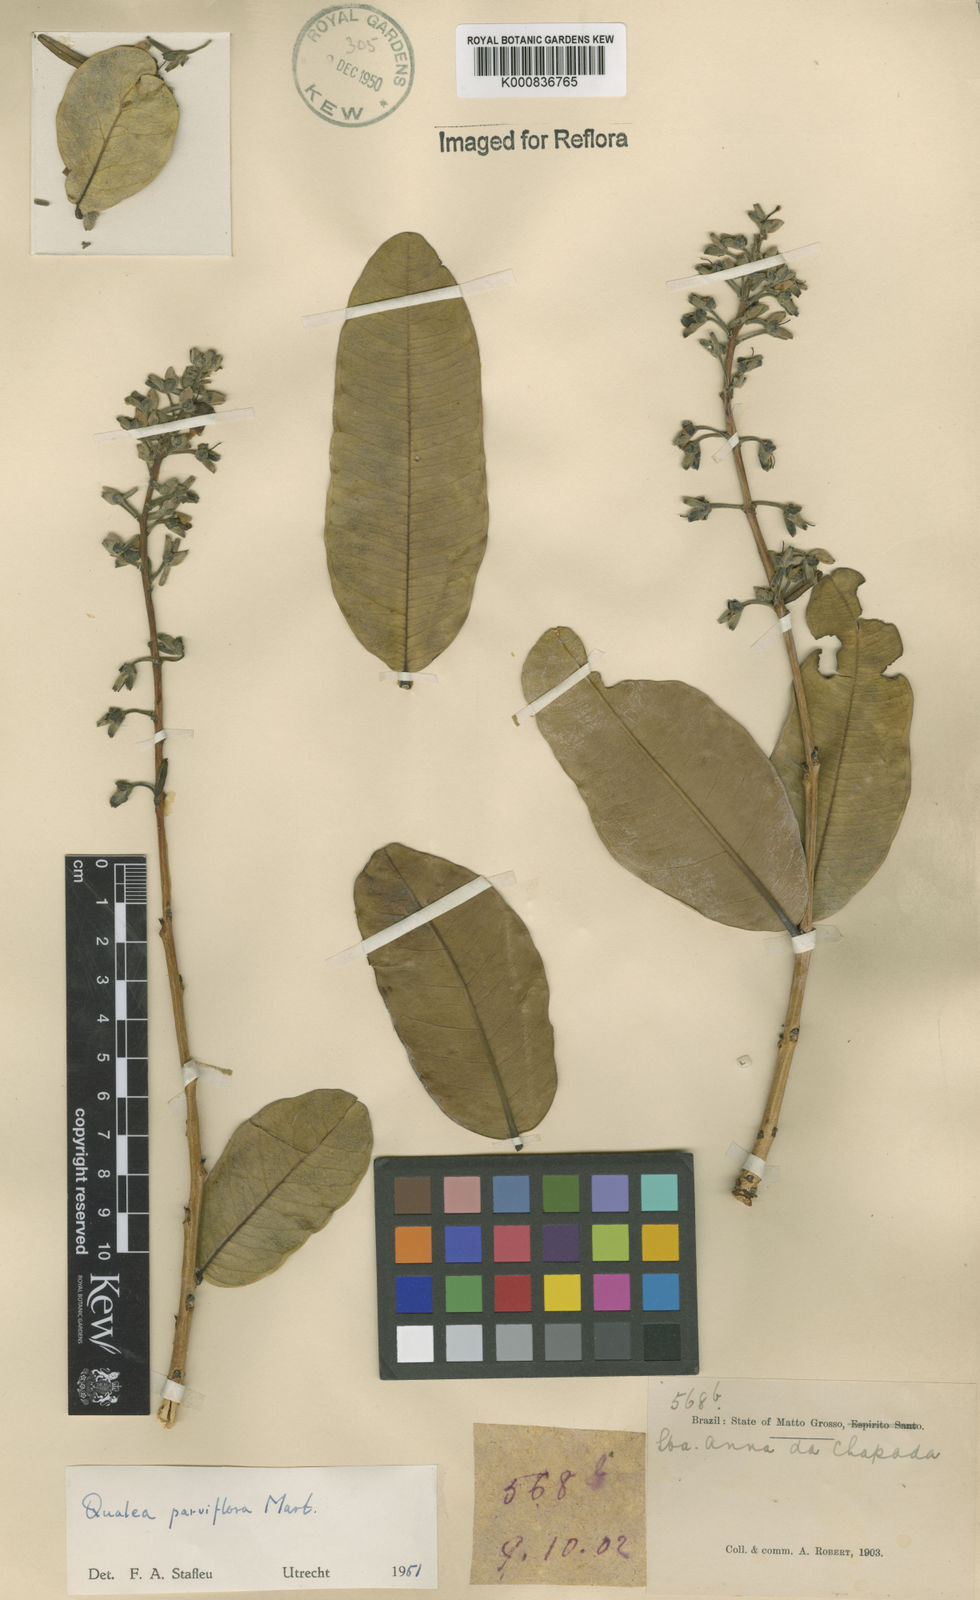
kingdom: Plantae
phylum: Tracheophyta
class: Magnoliopsida
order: Myrtales
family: Vochysiaceae
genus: Qualea
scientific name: Qualea parviflora
